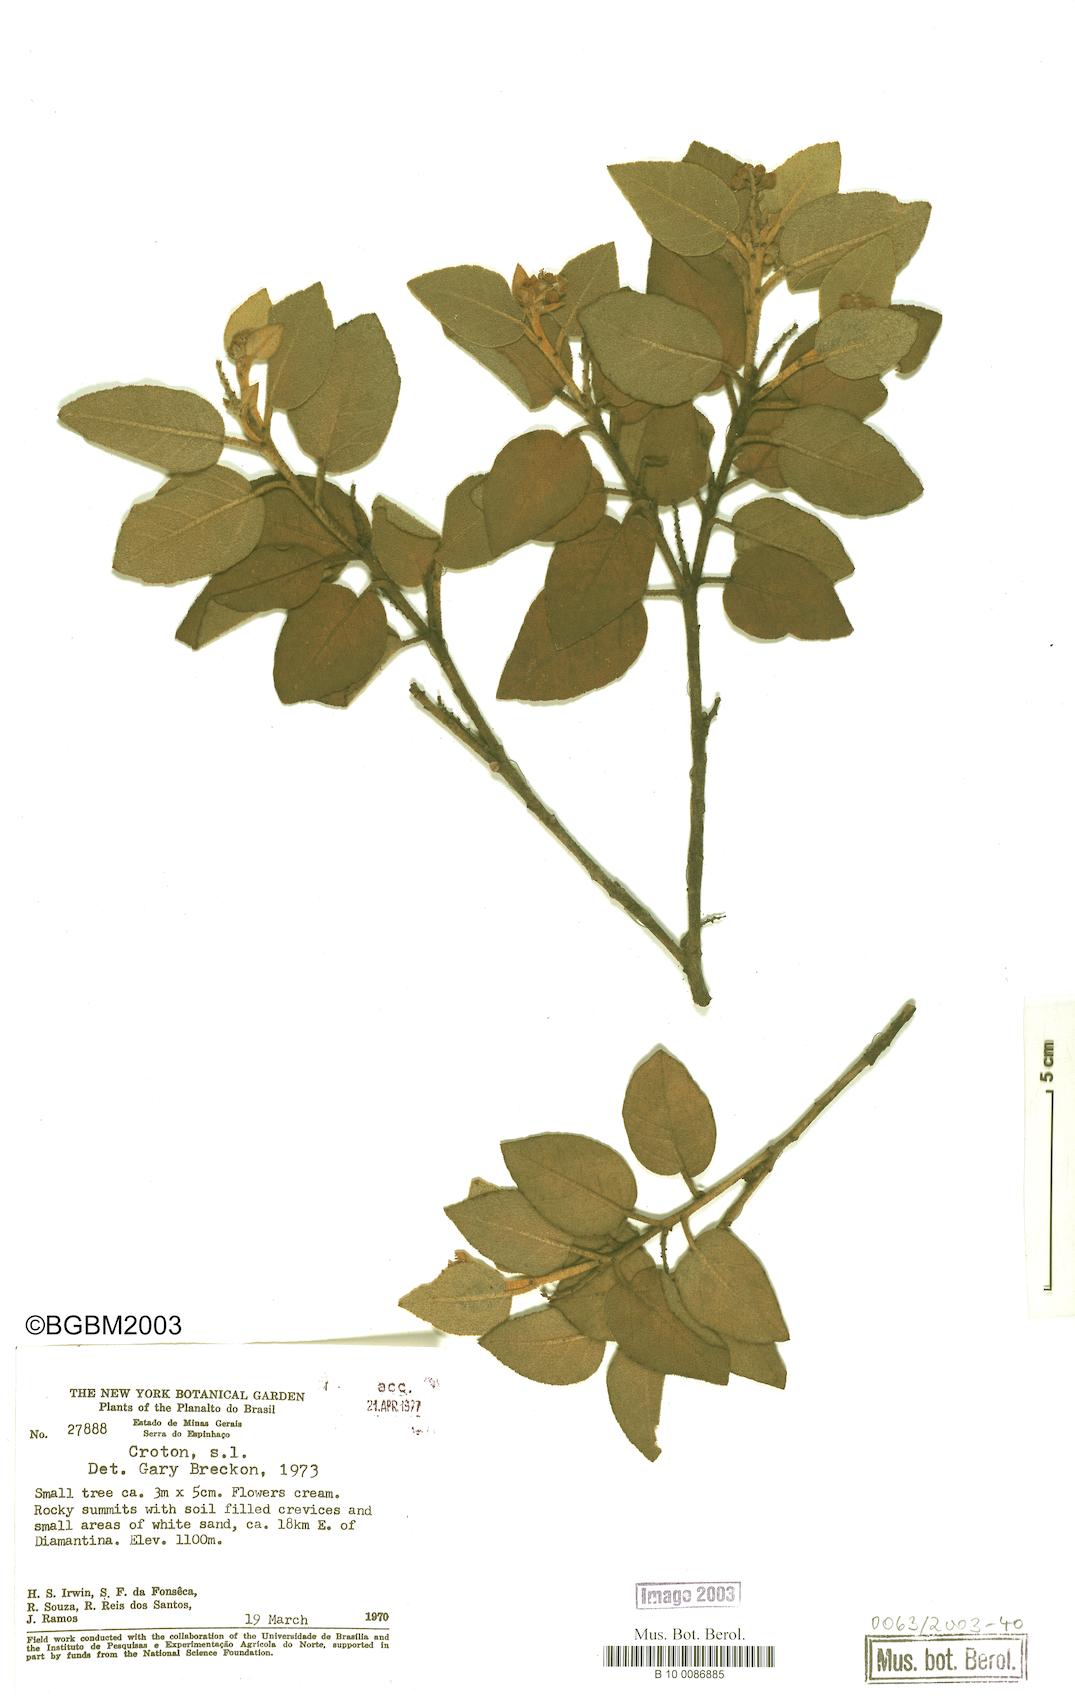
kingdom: Plantae
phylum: Tracheophyta
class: Magnoliopsida
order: Malpighiales
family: Euphorbiaceae
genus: Croton
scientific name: Croton
